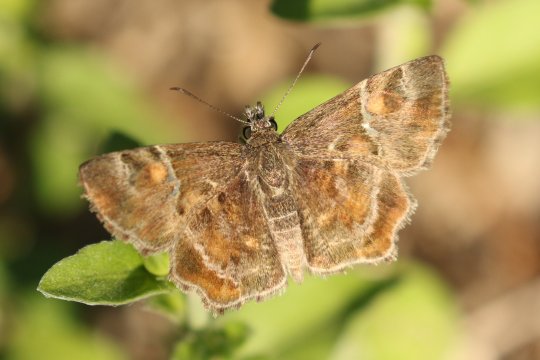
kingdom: Animalia
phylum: Arthropoda
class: Insecta
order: Lepidoptera
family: Hesperiidae
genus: Systasea
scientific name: Systasea pulverulenta
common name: Texas Powdered-Skipper
